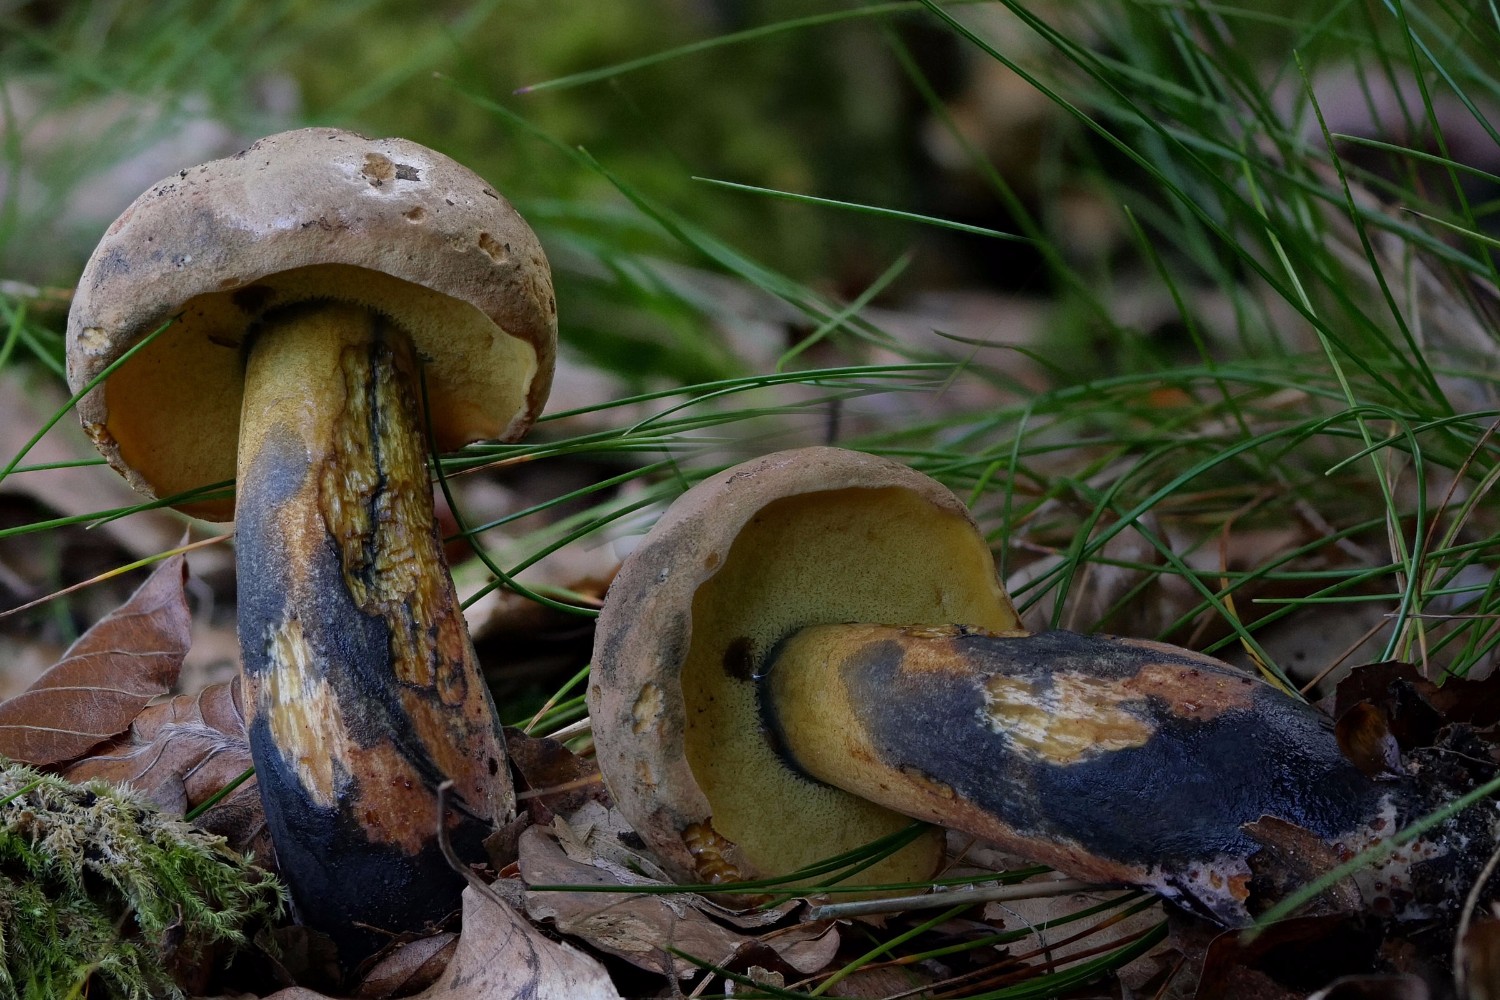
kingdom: Fungi
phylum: Basidiomycota
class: Agaricomycetes
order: Boletales
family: Boletaceae
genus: Cyanoboletus
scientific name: Cyanoboletus pulverulentus
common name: sortblånende rørhat
